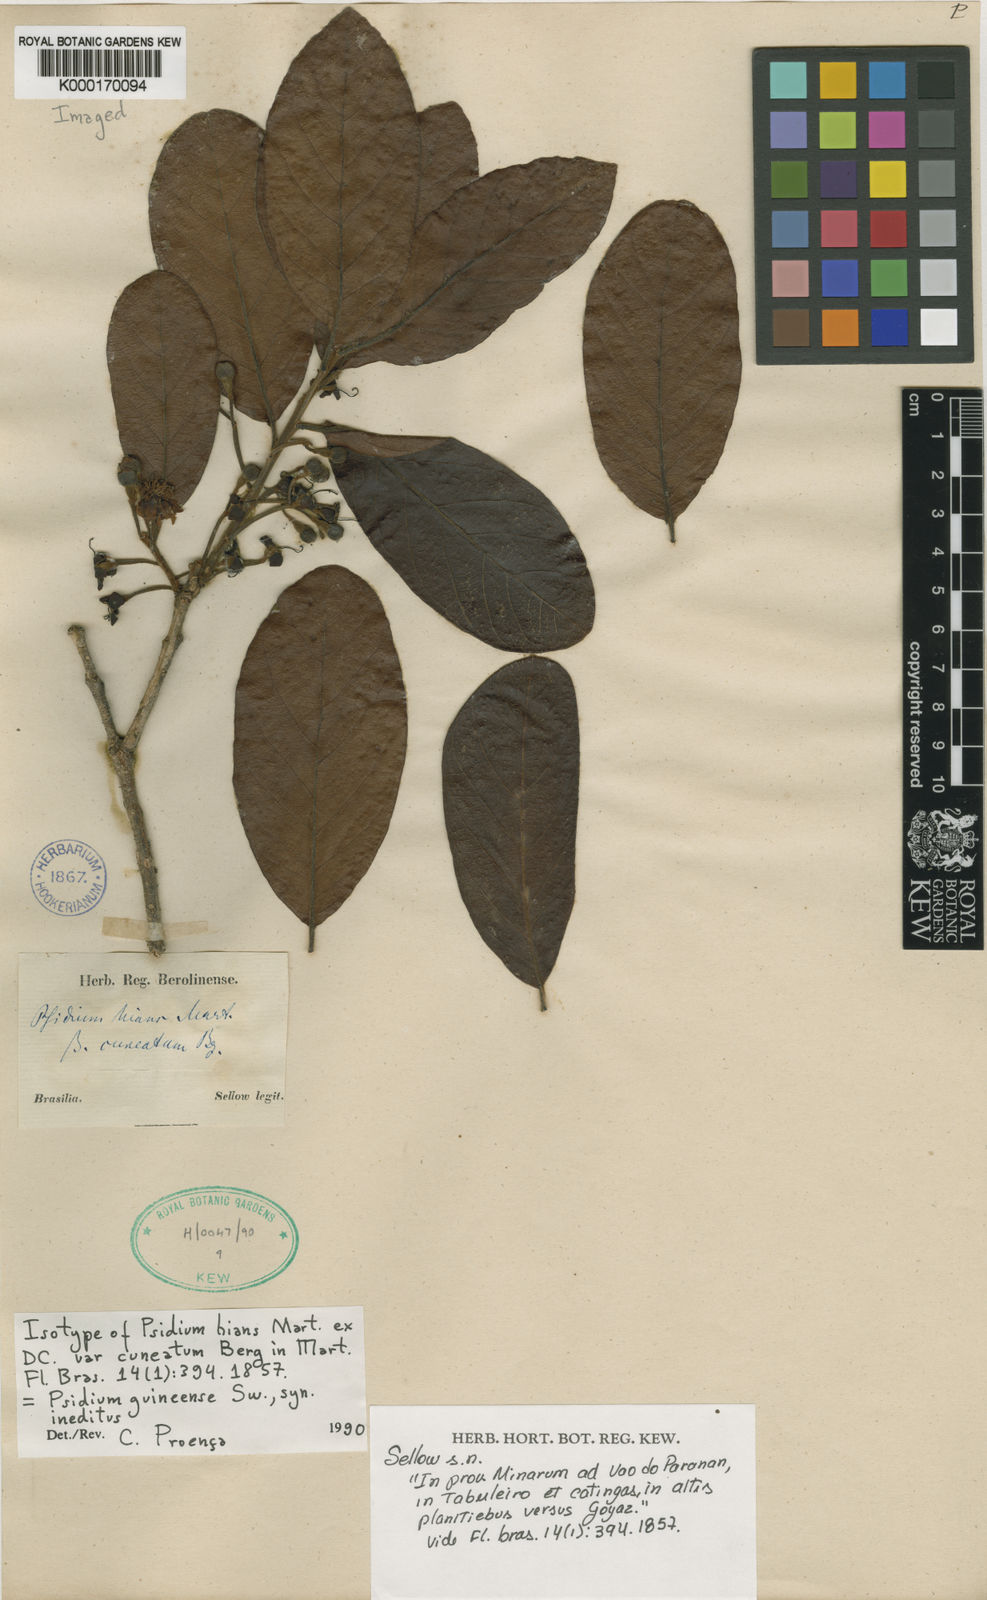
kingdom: Plantae
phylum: Tracheophyta
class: Magnoliopsida
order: Myrtales
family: Myrtaceae
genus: Campomanesia
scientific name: Campomanesia pubescens
